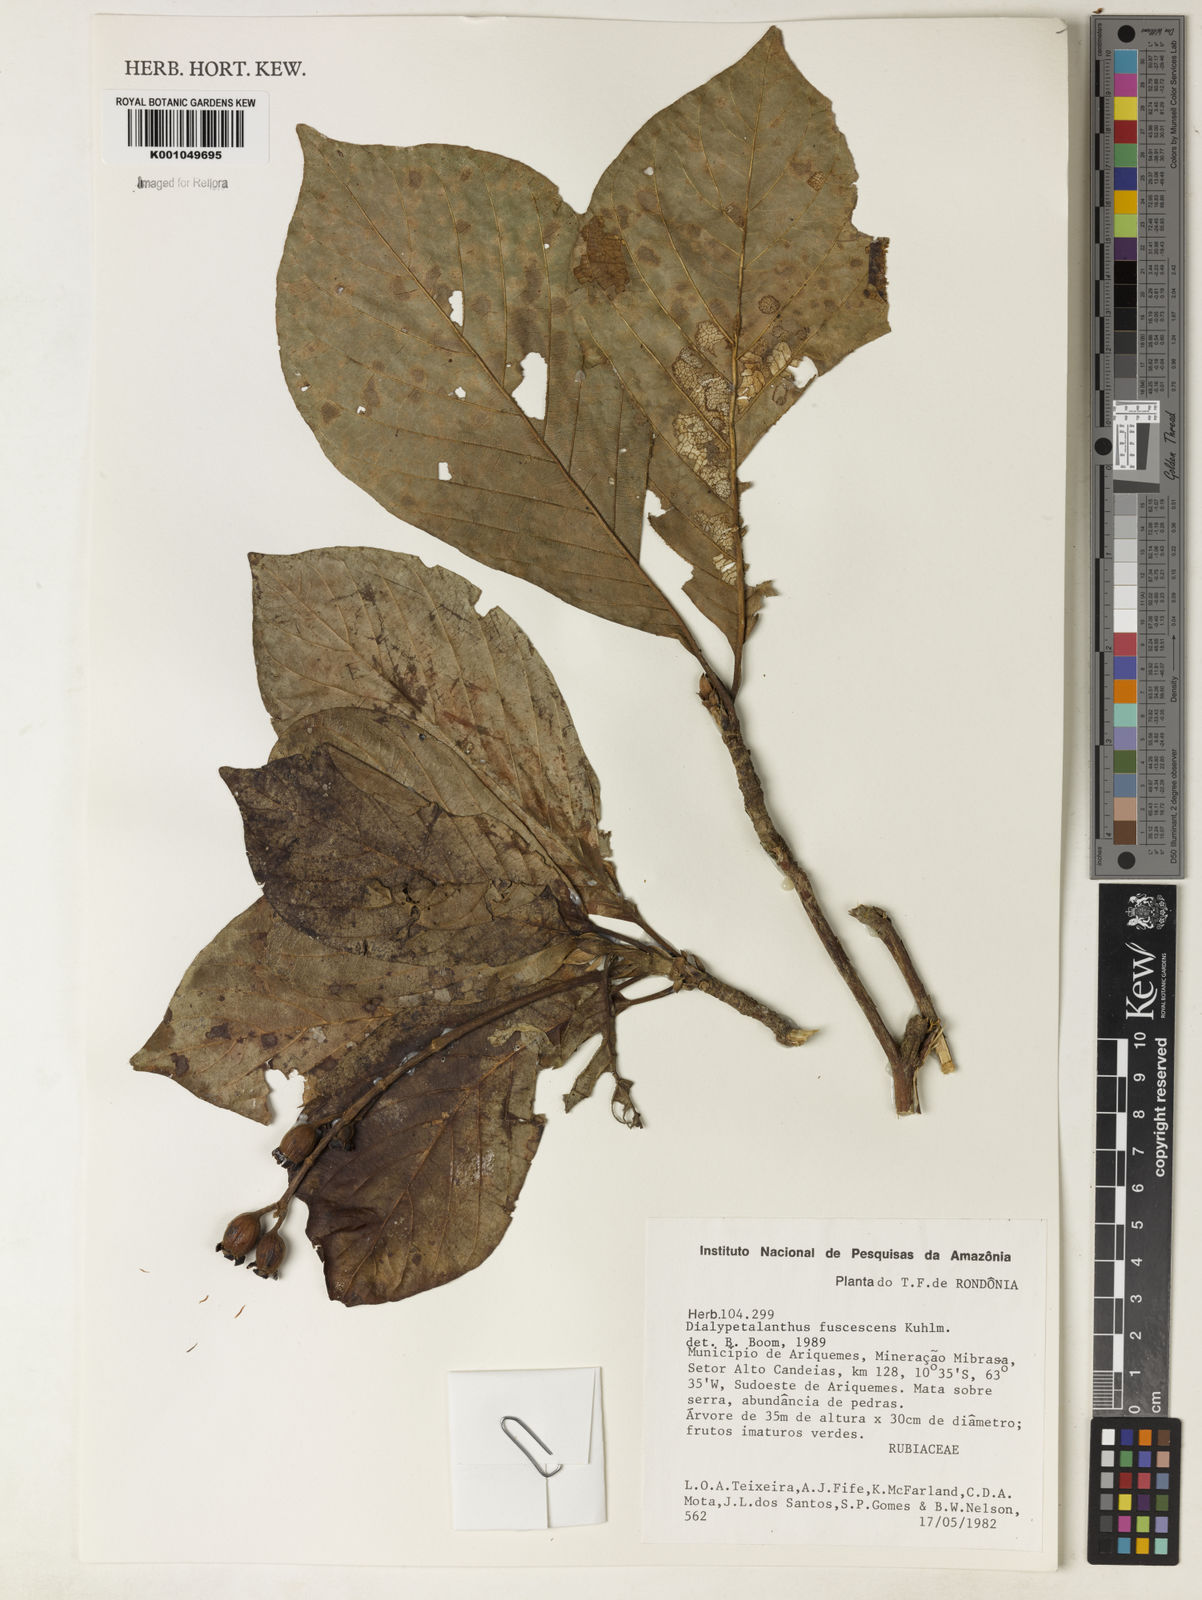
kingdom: Plantae
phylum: Tracheophyta
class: Magnoliopsida
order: Gentianales
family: Rubiaceae
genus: Dialypetalanthus
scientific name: Dialypetalanthus fuscescens
